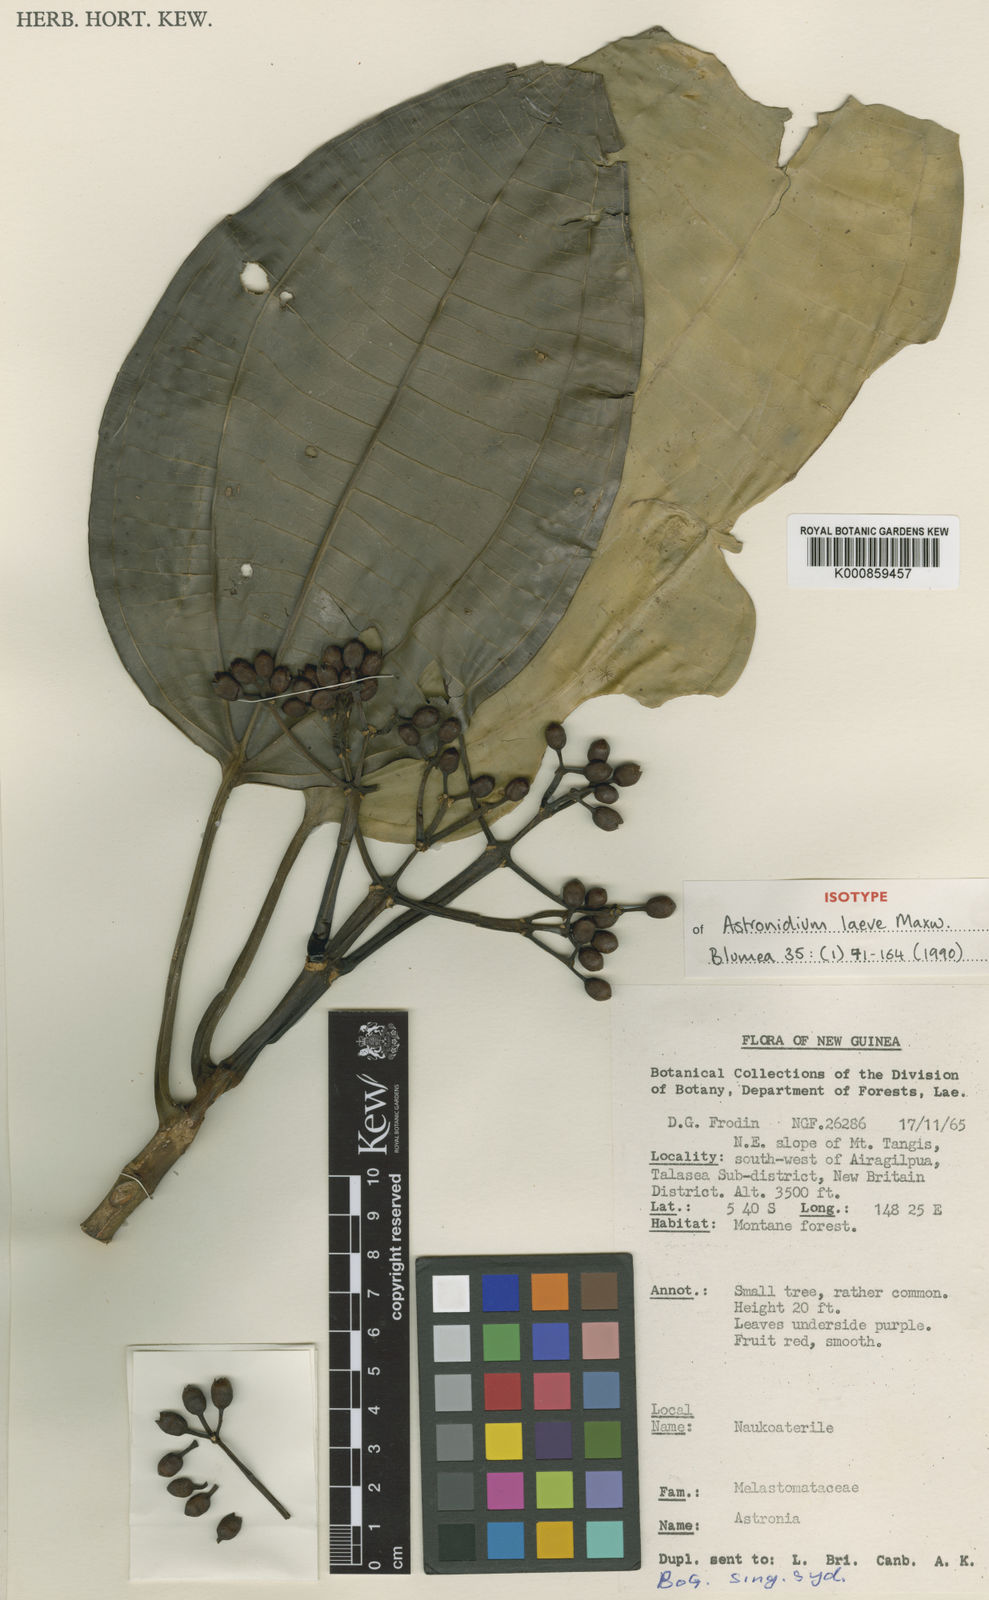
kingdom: Plantae
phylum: Tracheophyta
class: Magnoliopsida
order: Myrtales
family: Melastomataceae
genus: Astronidium
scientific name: Astronidium laeve
